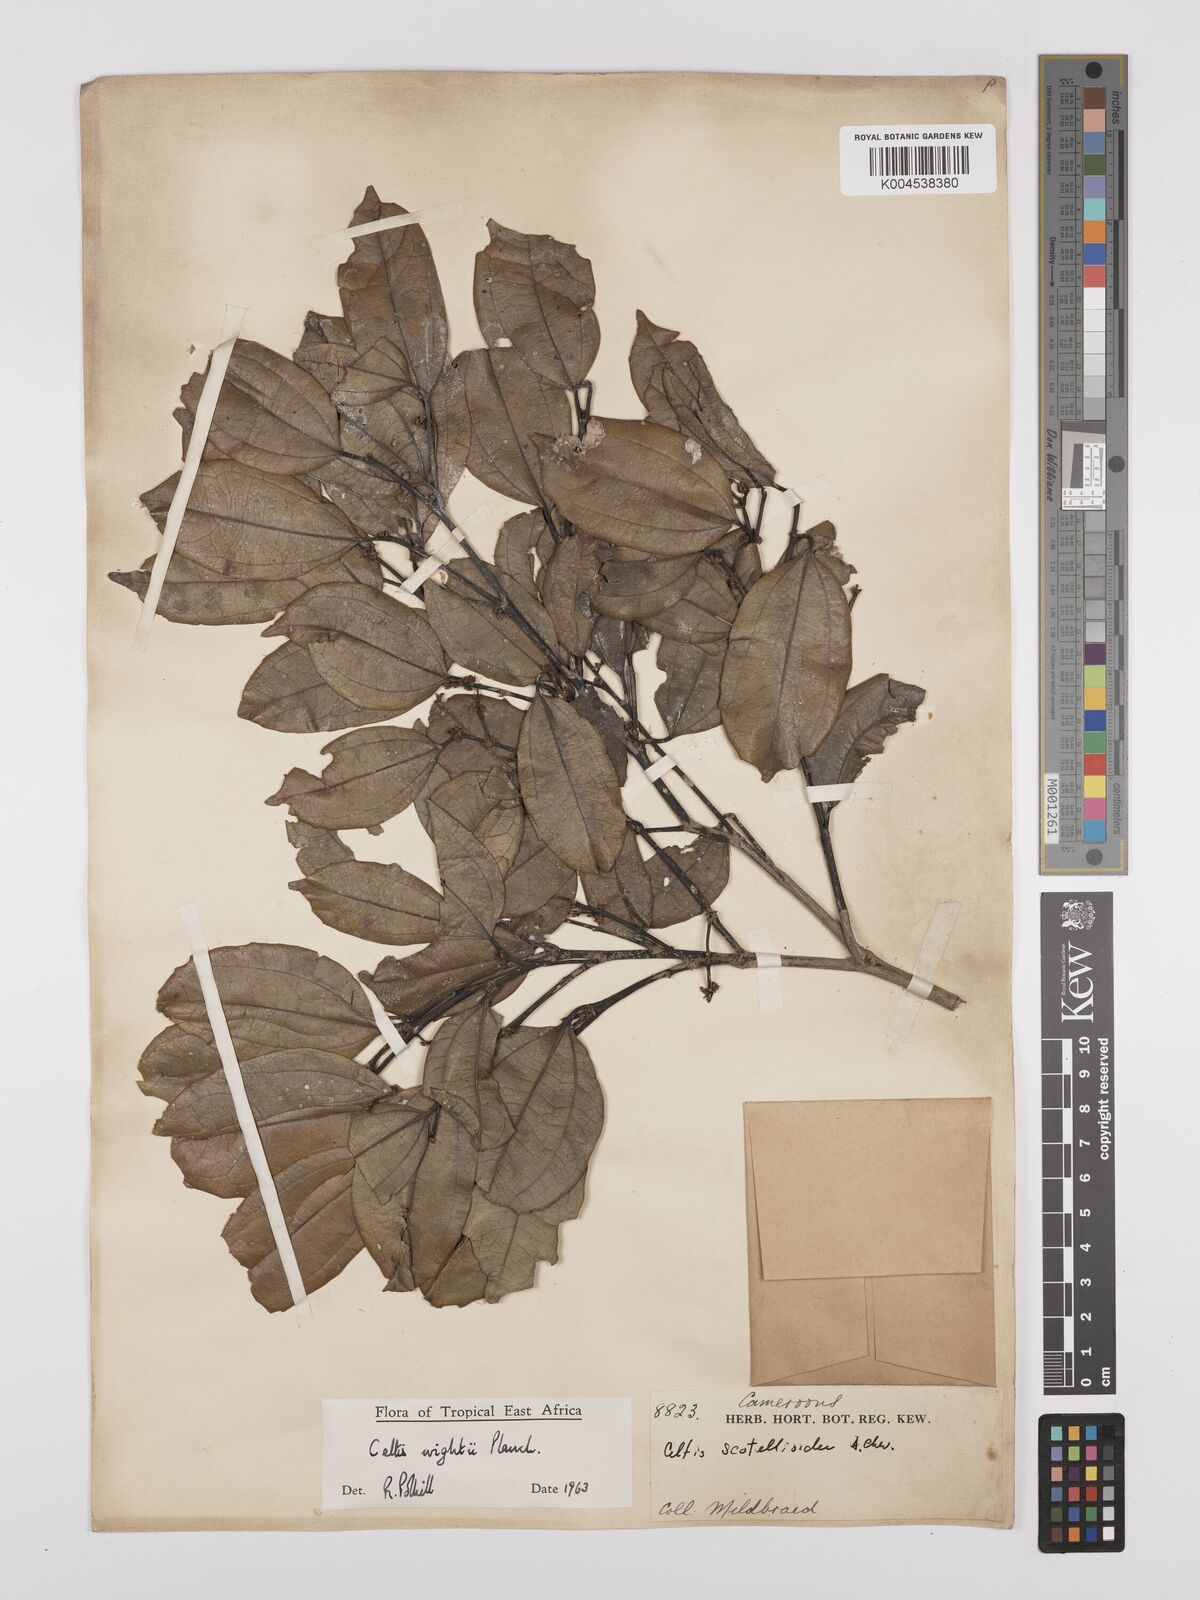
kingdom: Plantae
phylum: Tracheophyta
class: Magnoliopsida
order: Rosales
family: Cannabaceae
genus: Celtis
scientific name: Celtis philippensis
